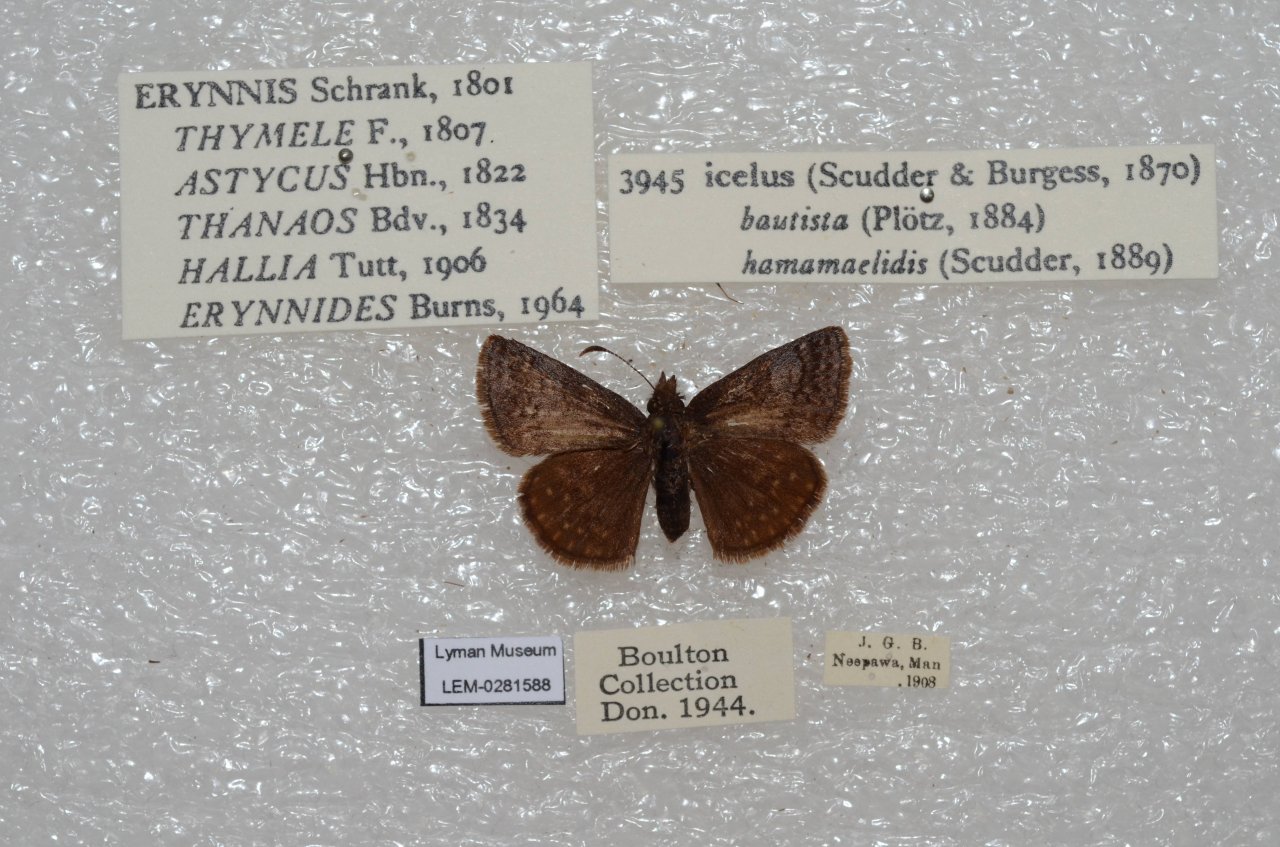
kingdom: Animalia
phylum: Arthropoda
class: Insecta
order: Lepidoptera
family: Hesperiidae
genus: Erynnis
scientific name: Erynnis icelus
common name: Dreamy Duskywing
